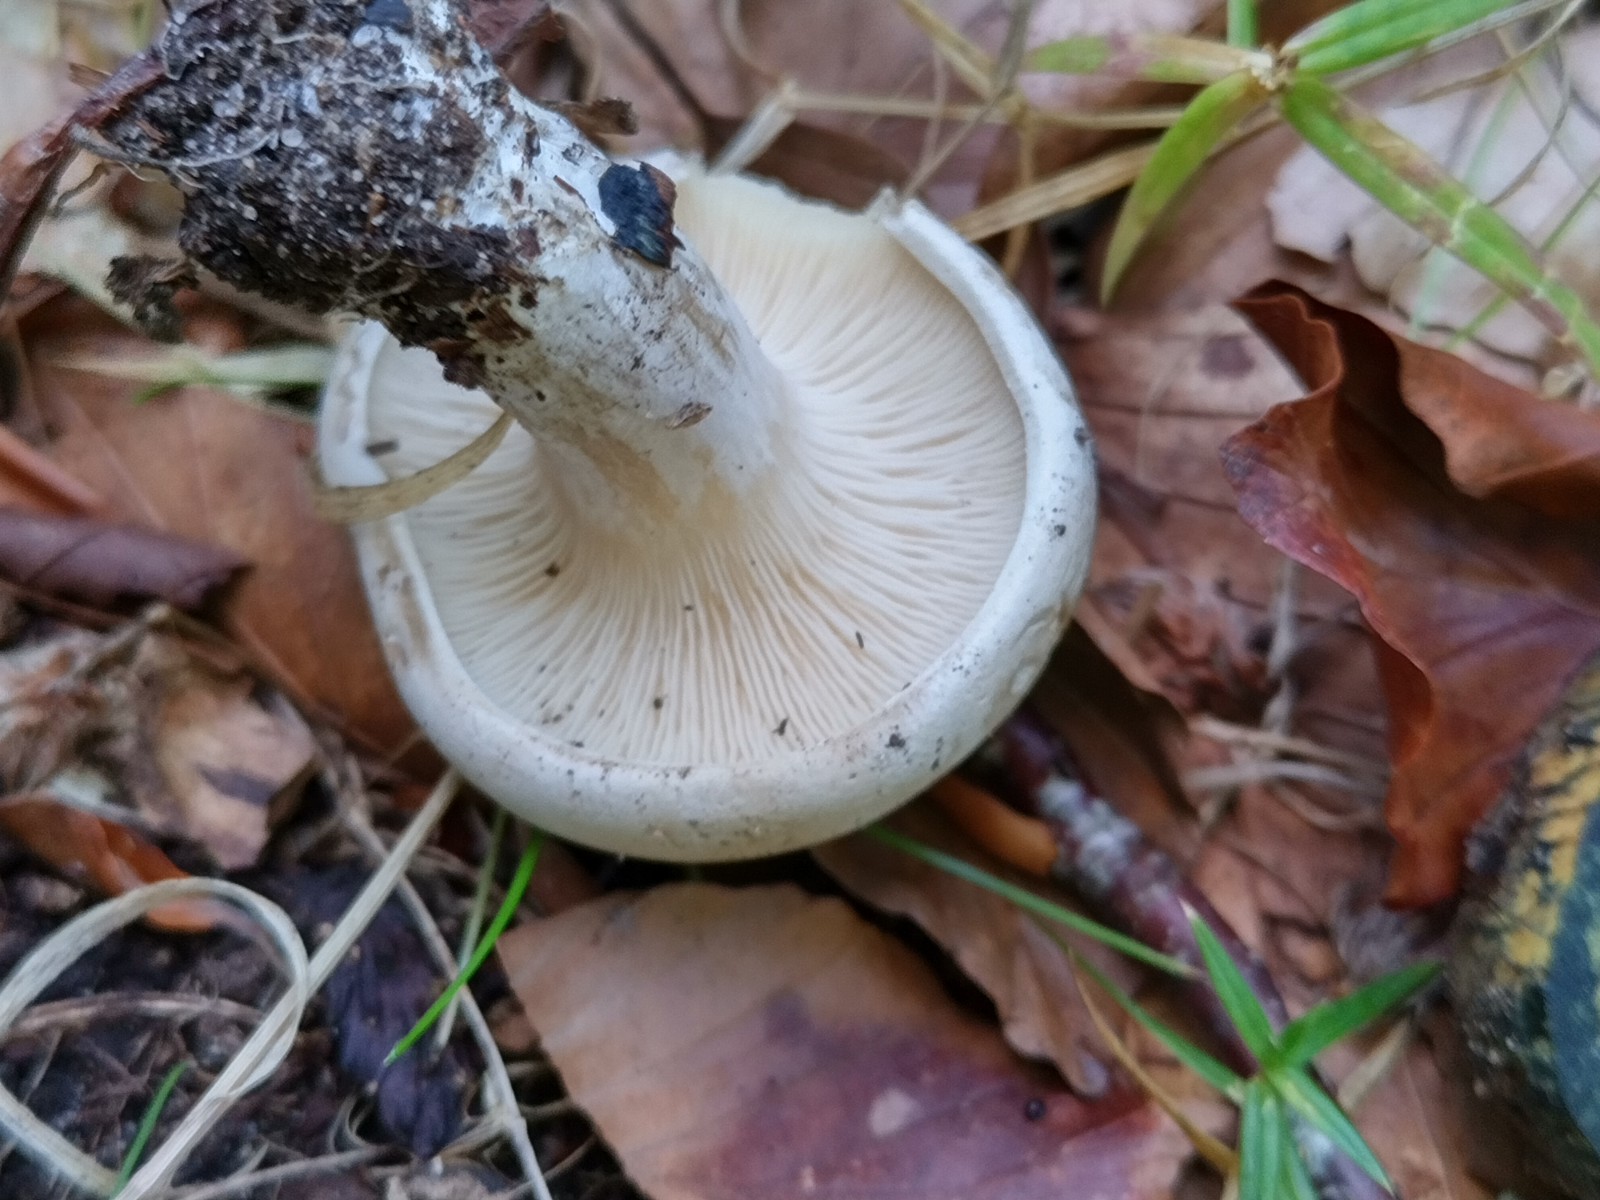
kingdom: Fungi
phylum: Basidiomycota
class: Agaricomycetes
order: Agaricales
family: Entolomataceae
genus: Clitopilus
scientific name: Clitopilus prunulus
